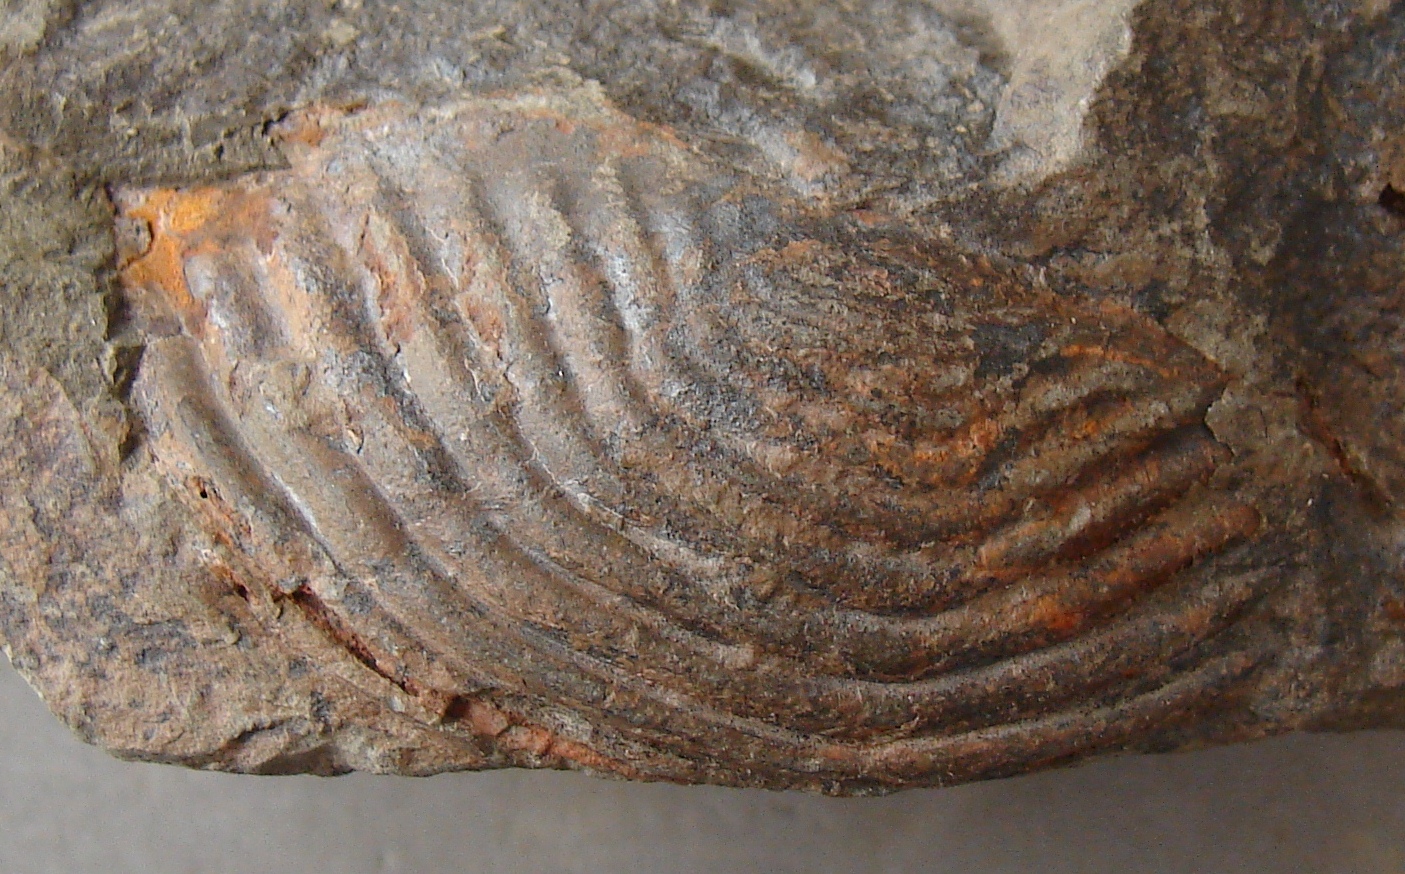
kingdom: Animalia
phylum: Arthropoda
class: Trilobita
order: Phacopida
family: Homalonotidae
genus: Parahomalonotus
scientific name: Parahomalonotus
